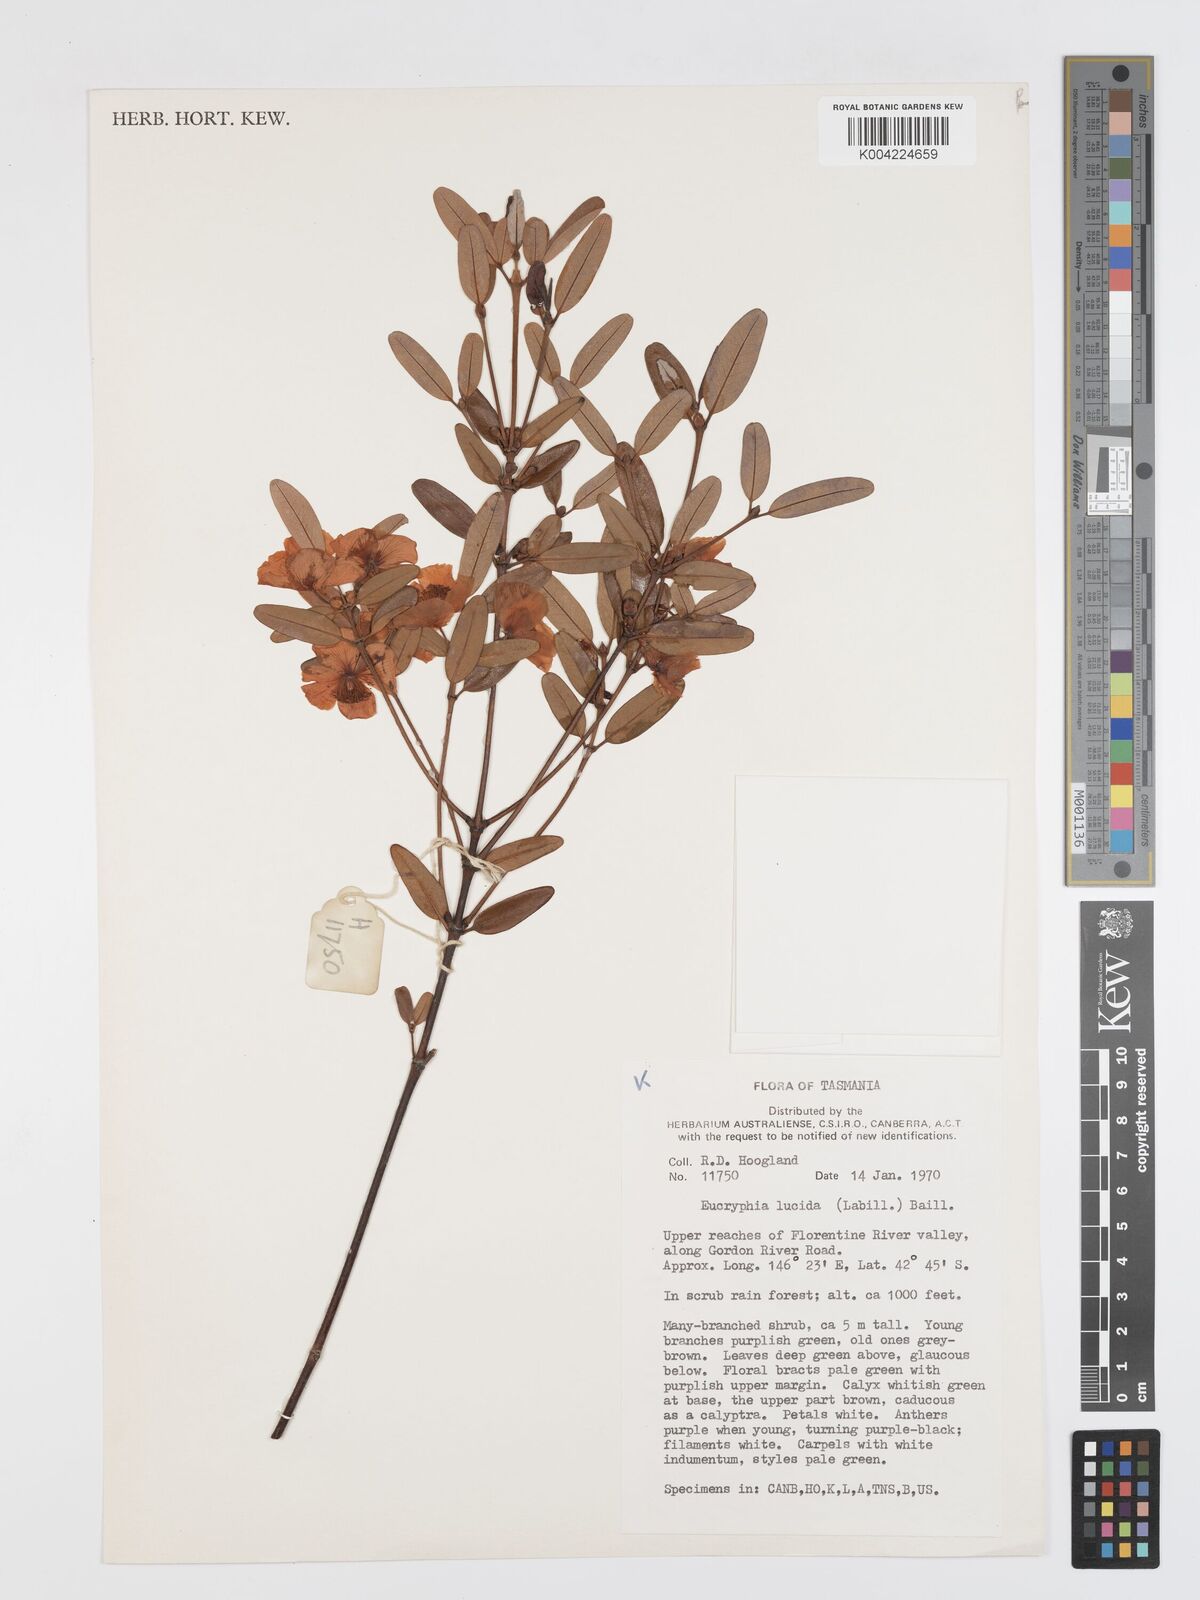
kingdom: Plantae
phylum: Tracheophyta
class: Magnoliopsida
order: Oxalidales
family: Cunoniaceae
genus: Eucryphia
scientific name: Eucryphia lucida
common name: Leatherwood
